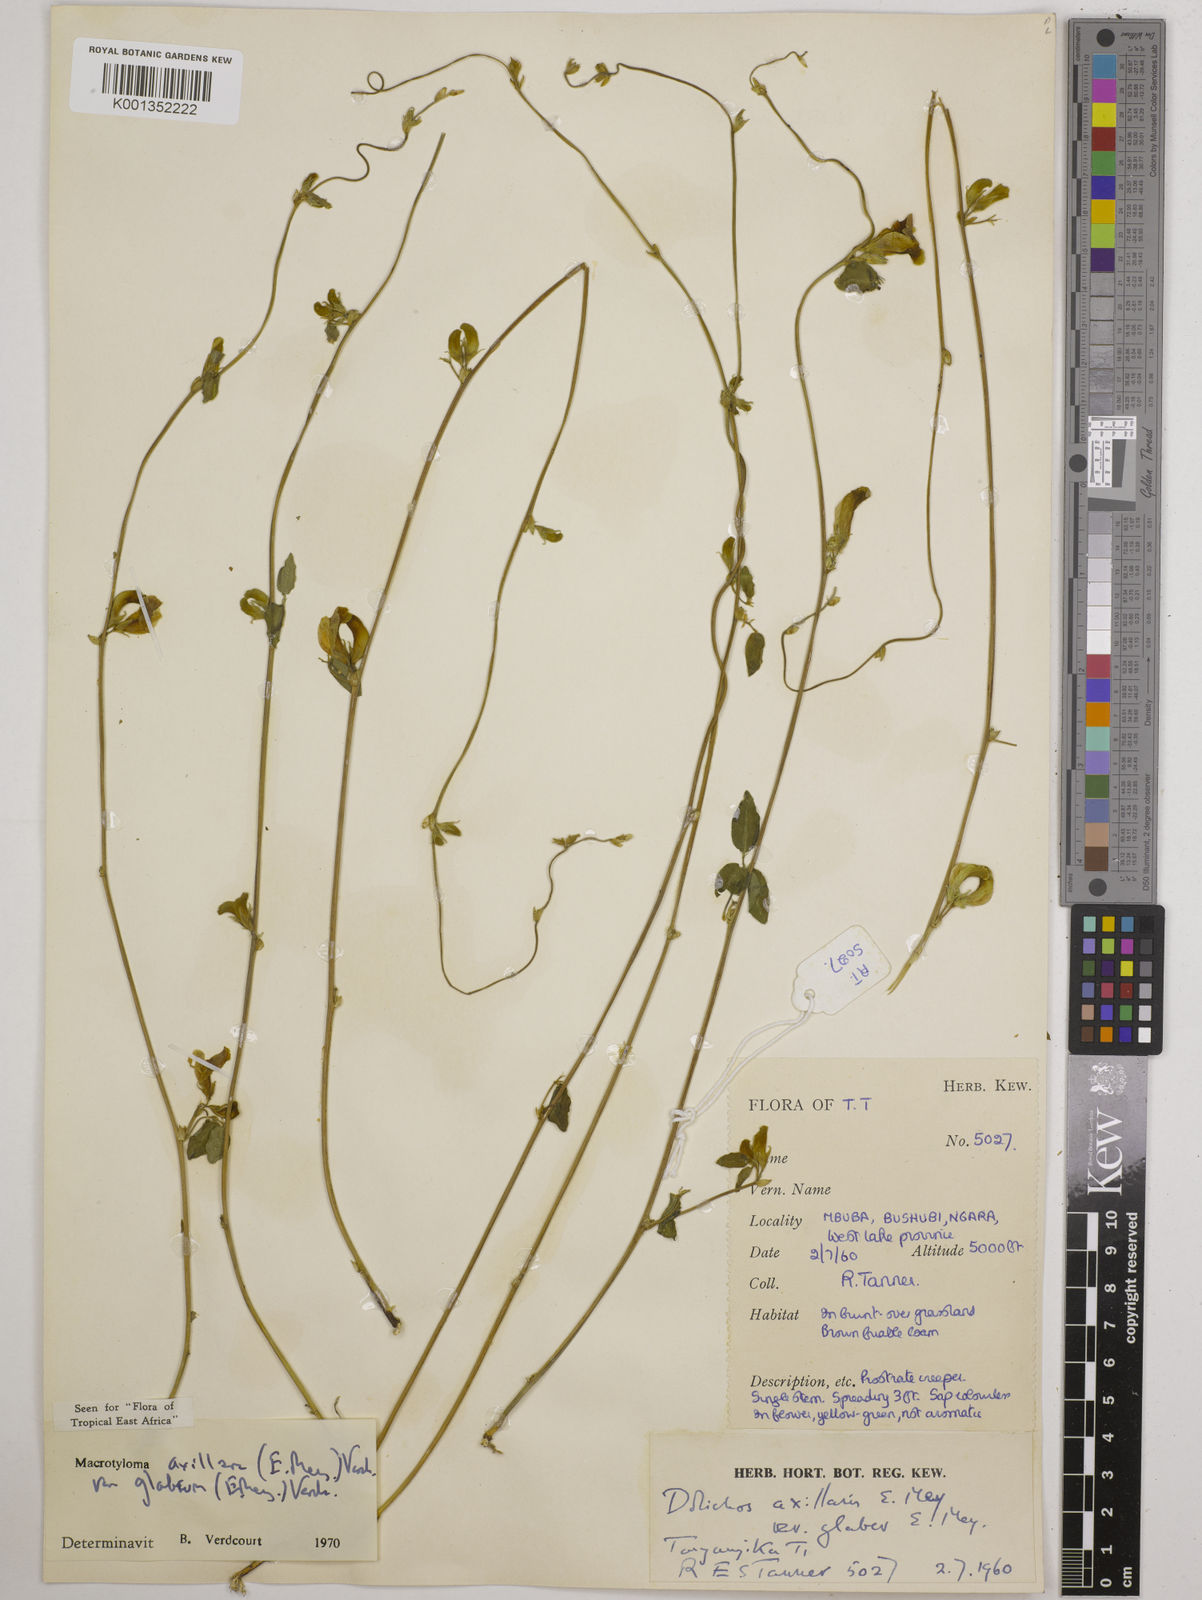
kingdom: Plantae
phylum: Tracheophyta
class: Magnoliopsida
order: Fabales
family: Fabaceae
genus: Macrotyloma
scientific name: Macrotyloma
